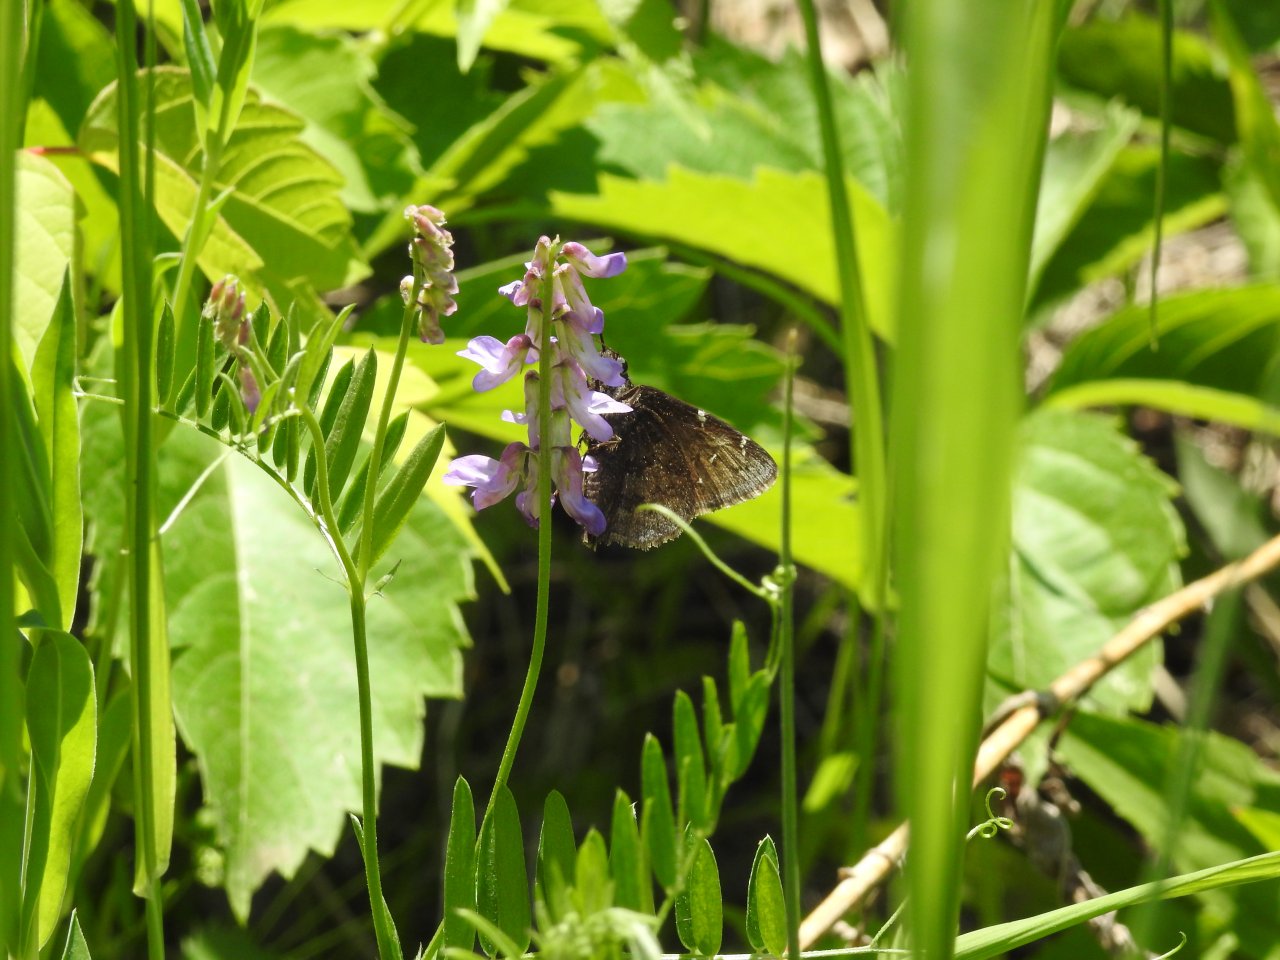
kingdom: Animalia
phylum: Arthropoda
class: Insecta
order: Lepidoptera
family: Hesperiidae
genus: Autochton
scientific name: Autochton
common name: Northern Cloudywing
